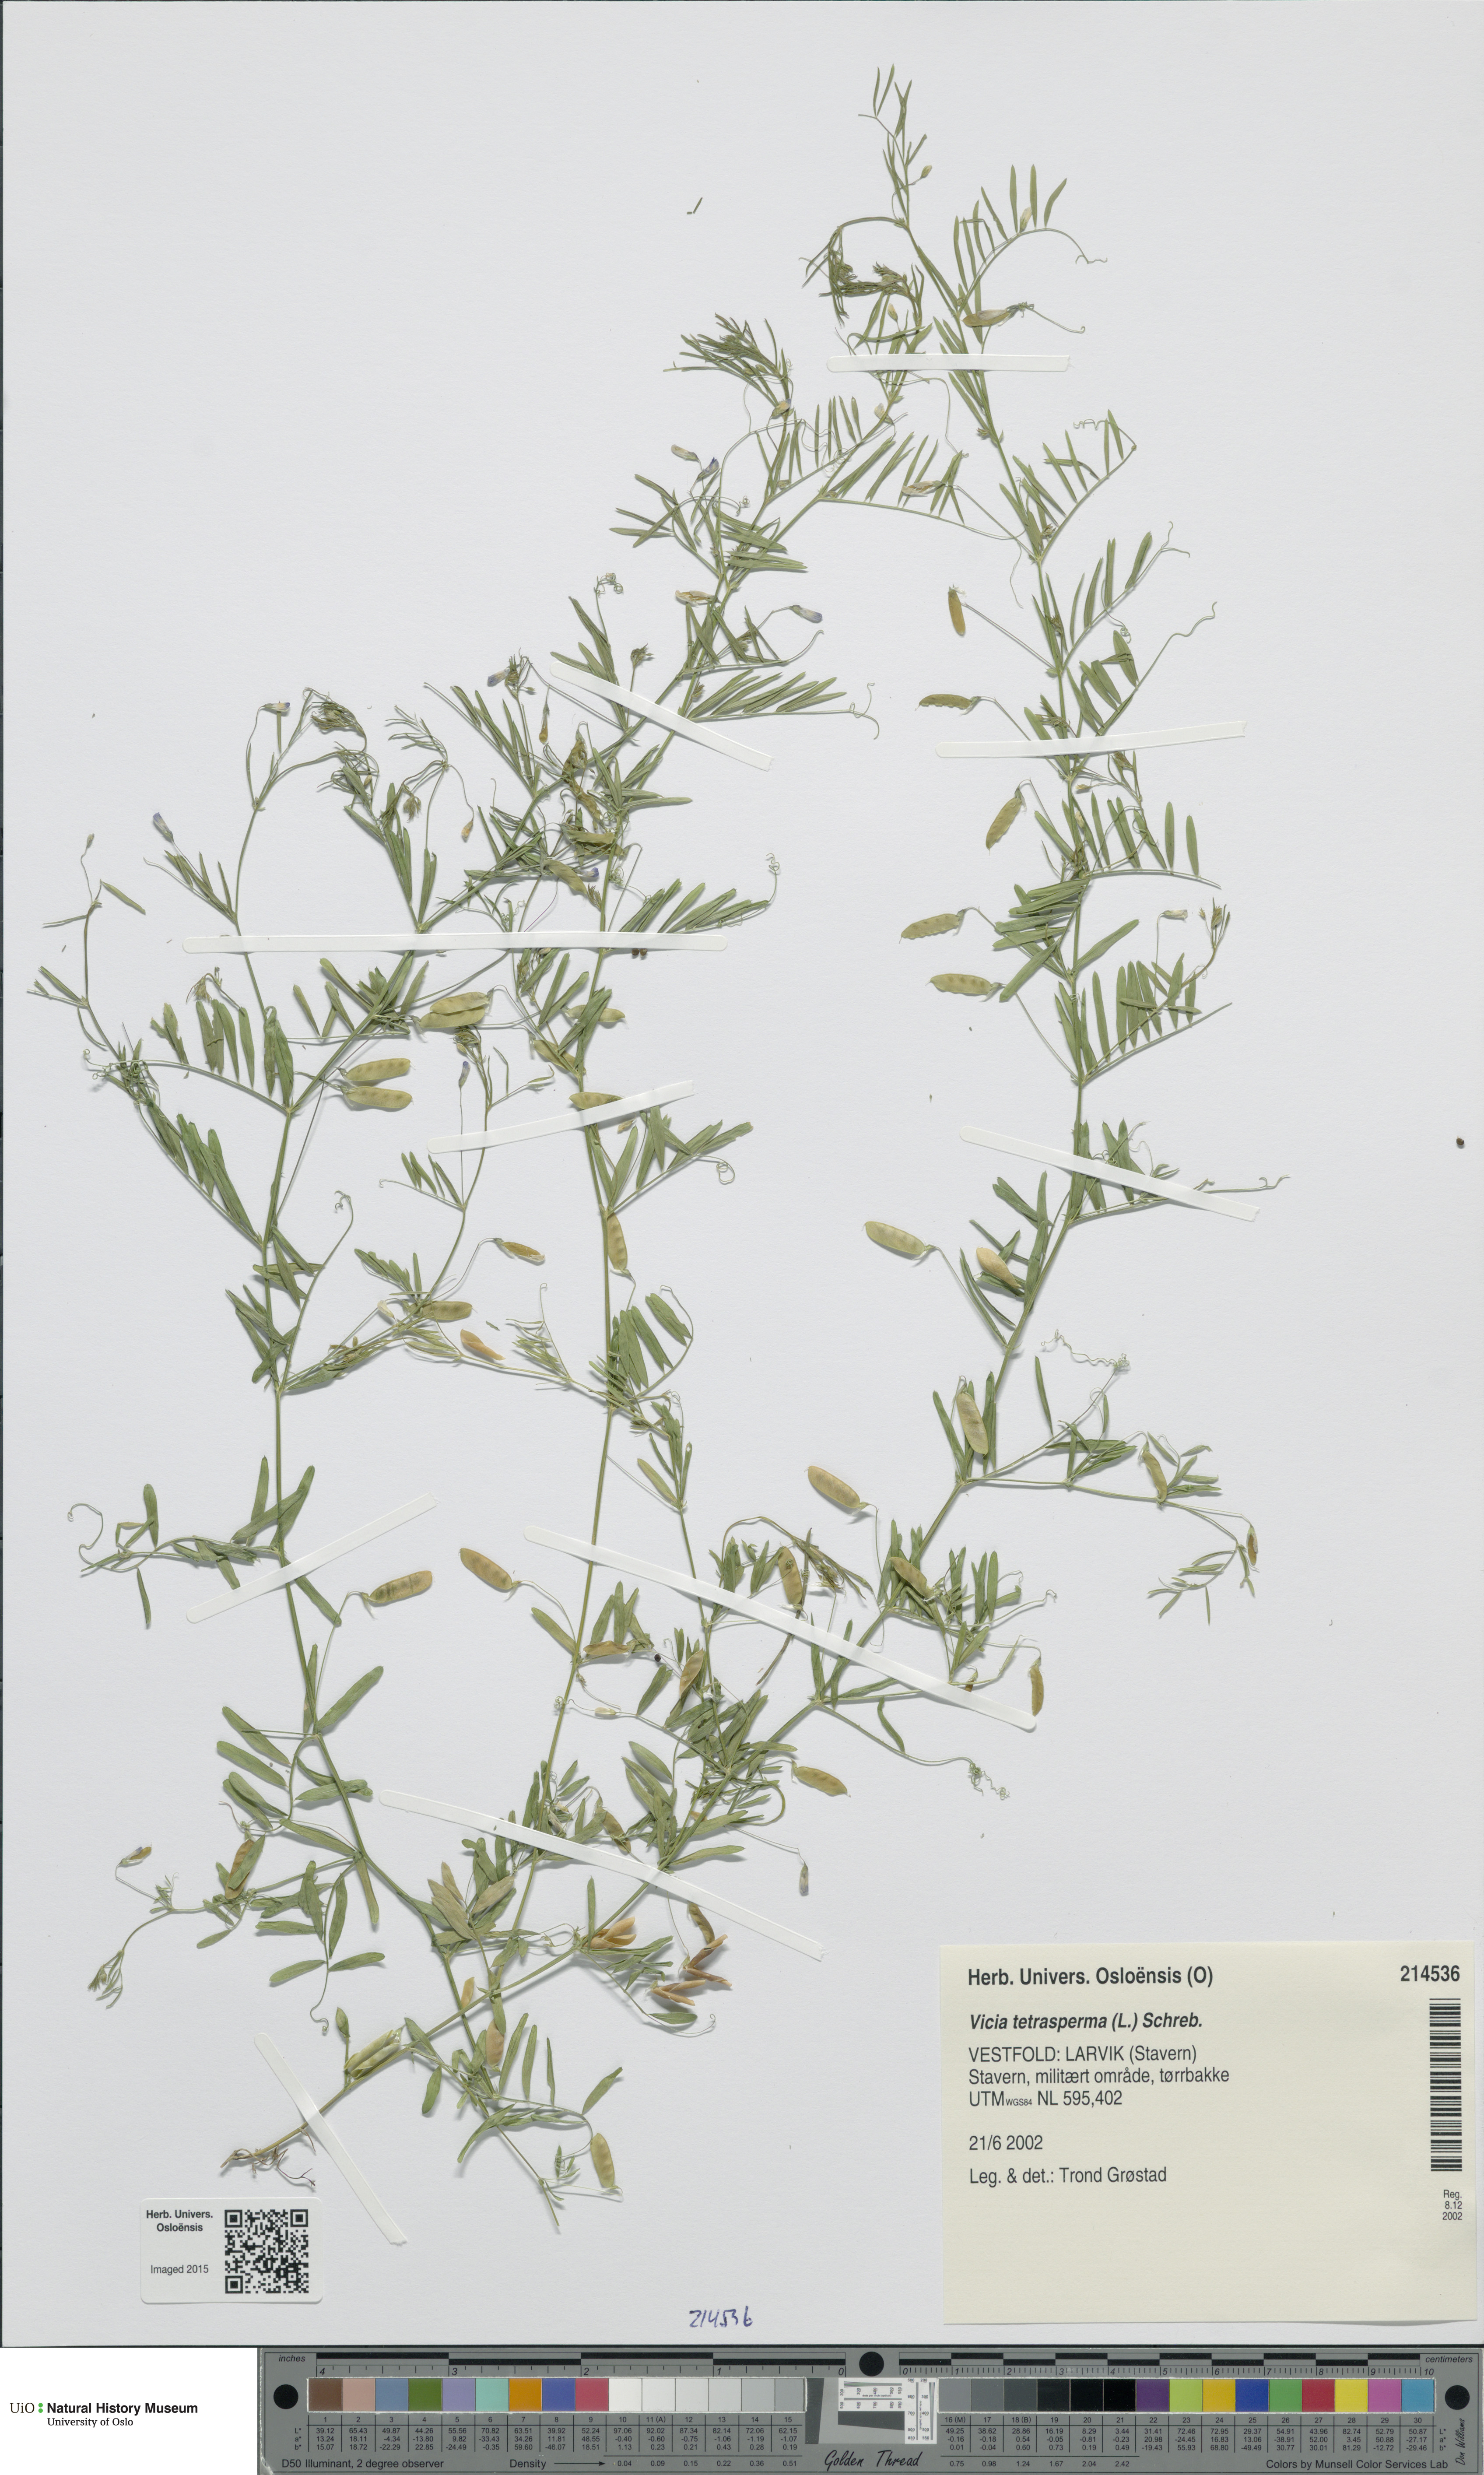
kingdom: Plantae
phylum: Tracheophyta
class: Magnoliopsida
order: Fabales
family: Fabaceae
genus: Vicia
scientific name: Vicia tetrasperma
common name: Smooth tare
